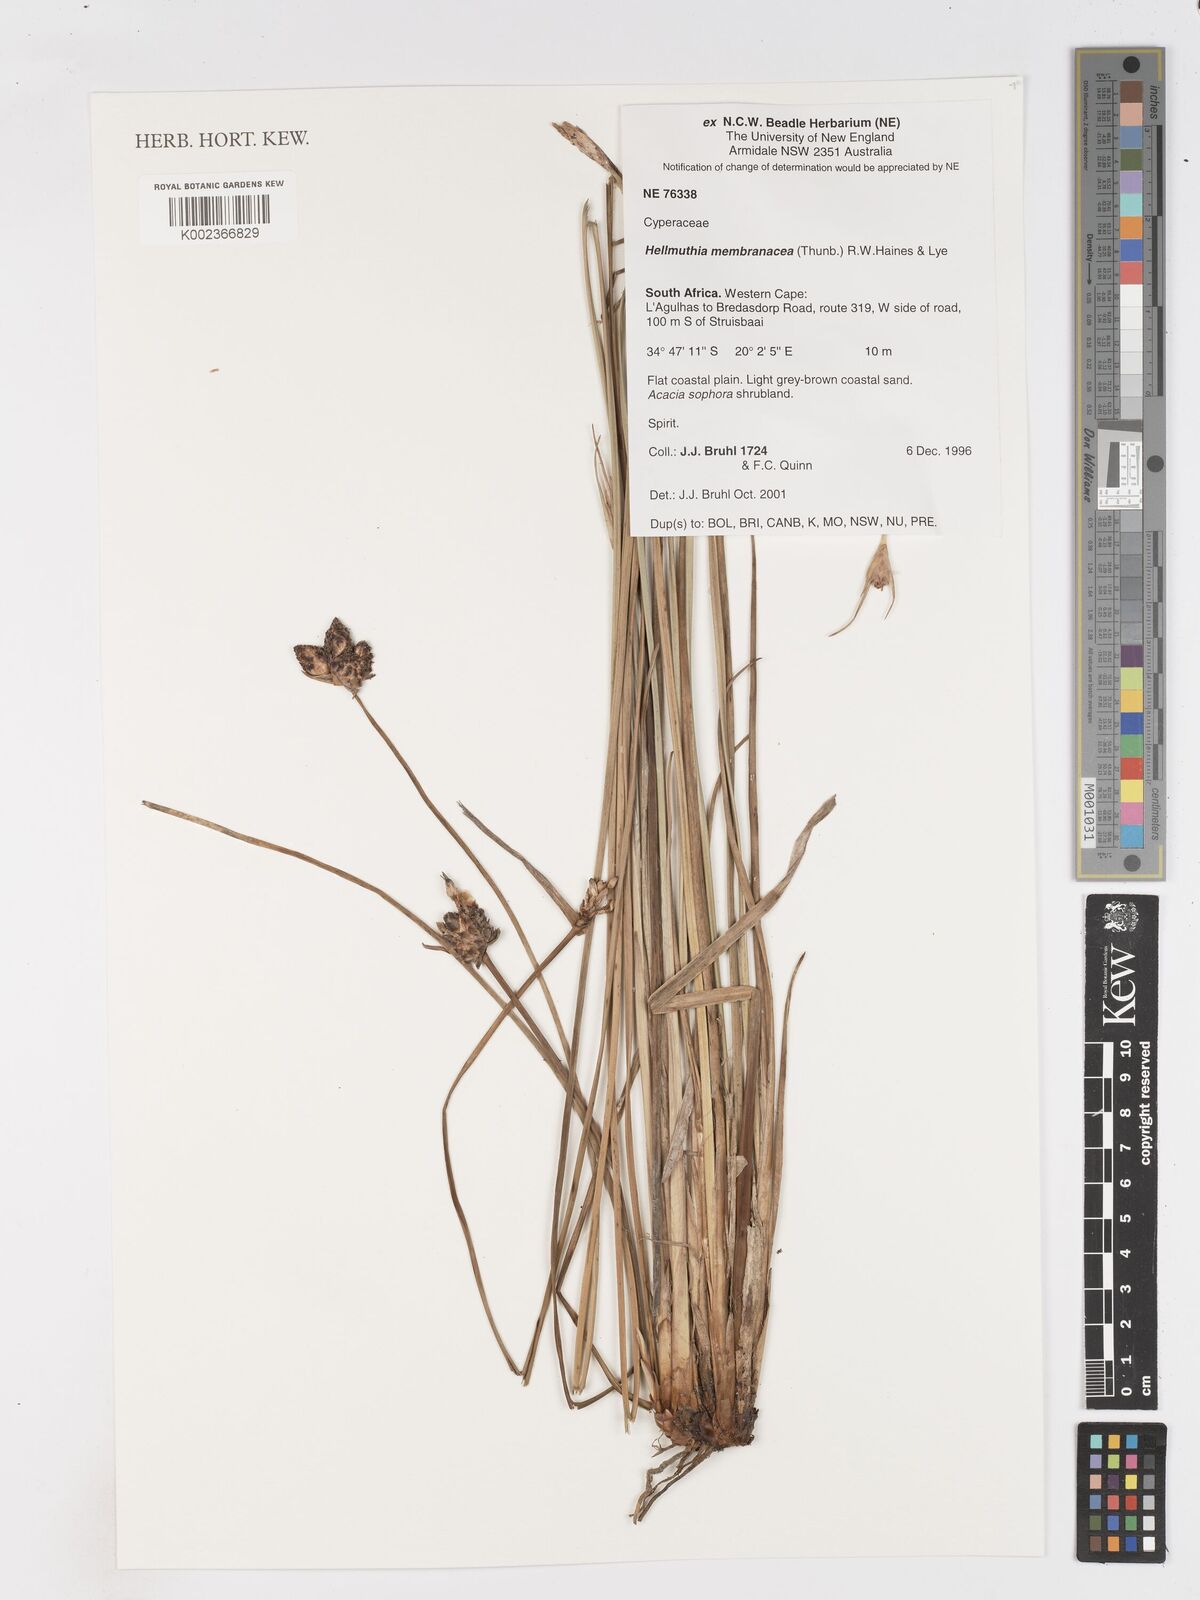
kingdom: Plantae
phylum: Tracheophyta
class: Liliopsida
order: Poales
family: Cyperaceae
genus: Hellmuthia
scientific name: Hellmuthia membranacea
